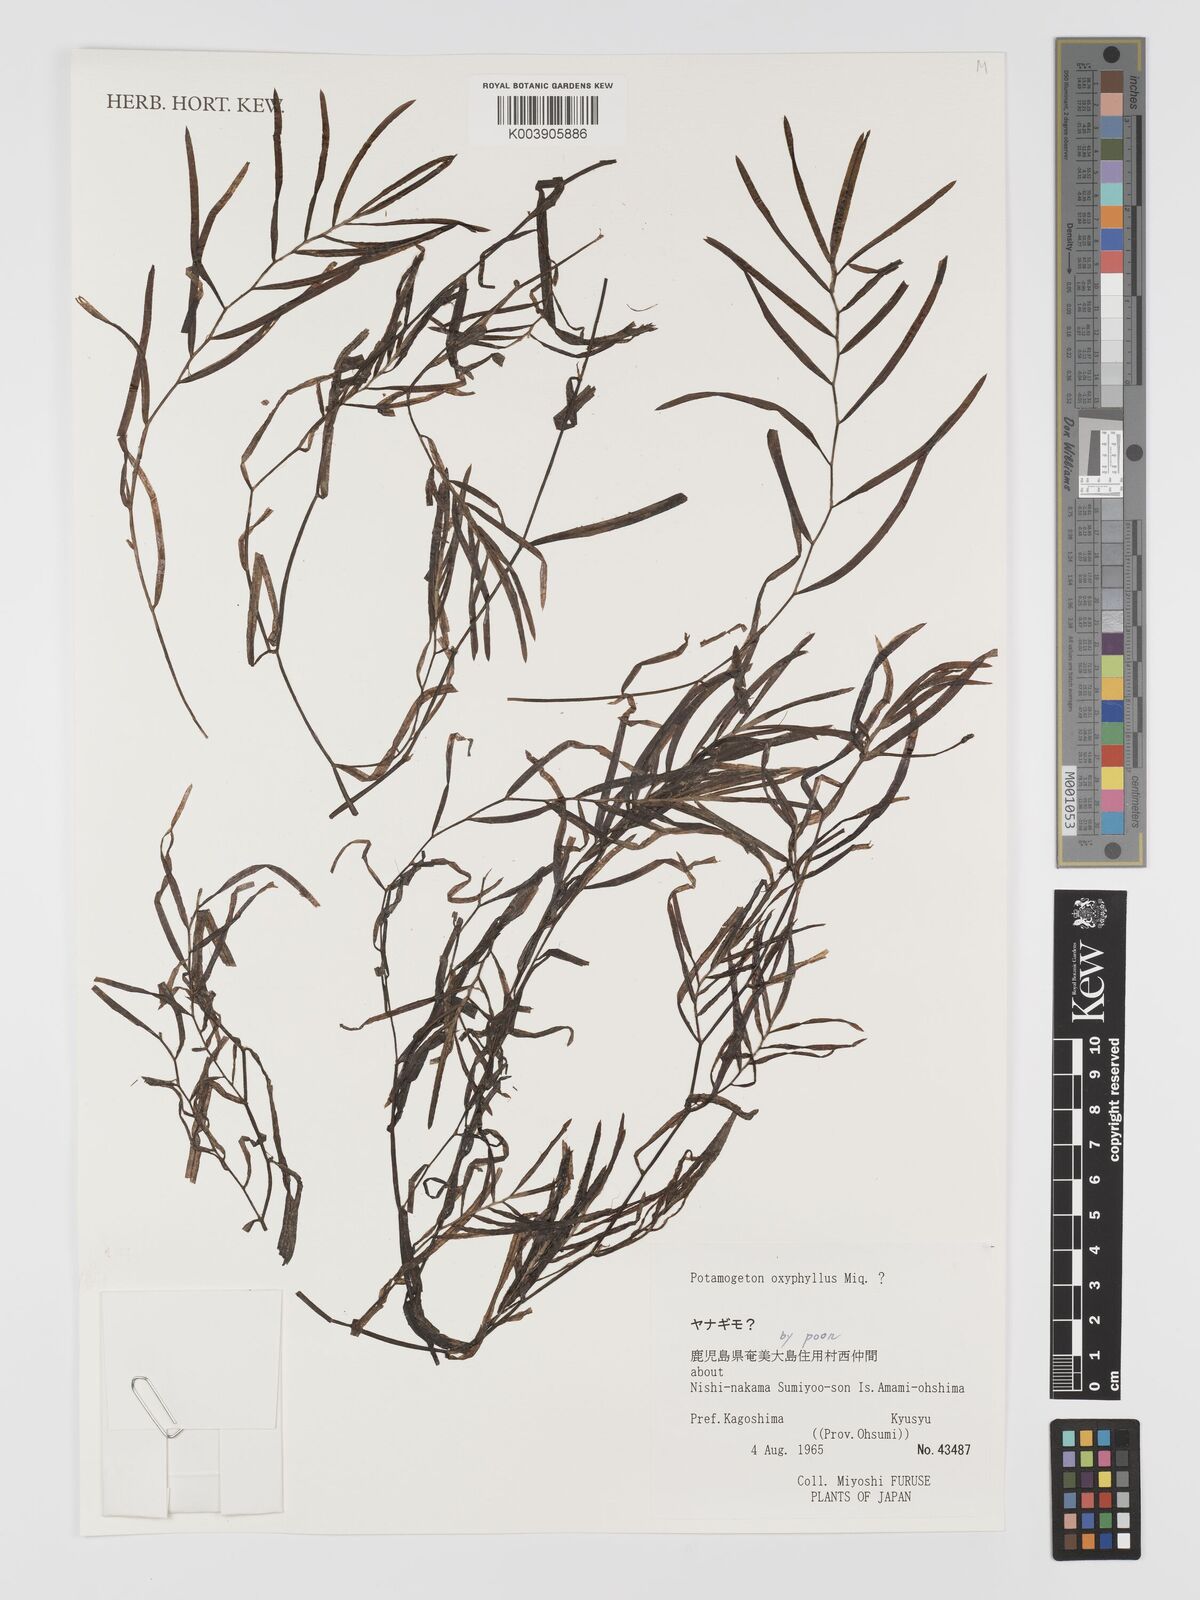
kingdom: Plantae
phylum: Tracheophyta
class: Liliopsida
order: Alismatales
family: Potamogetonaceae
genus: Potamogeton
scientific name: Potamogeton oxyphyllus
